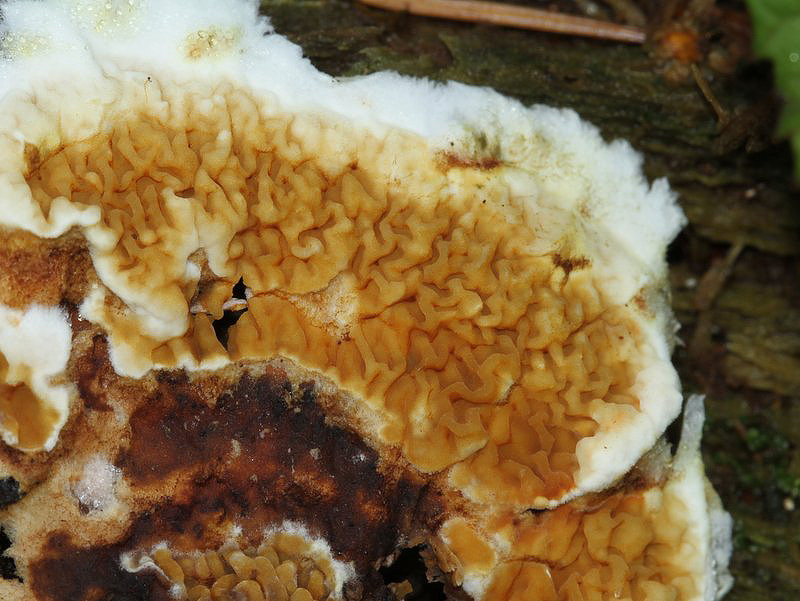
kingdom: Fungi
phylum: Basidiomycota
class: Agaricomycetes
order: Boletales
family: Serpulaceae
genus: Serpula
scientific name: Serpula himantioides
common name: tyndkødet hussvamp
